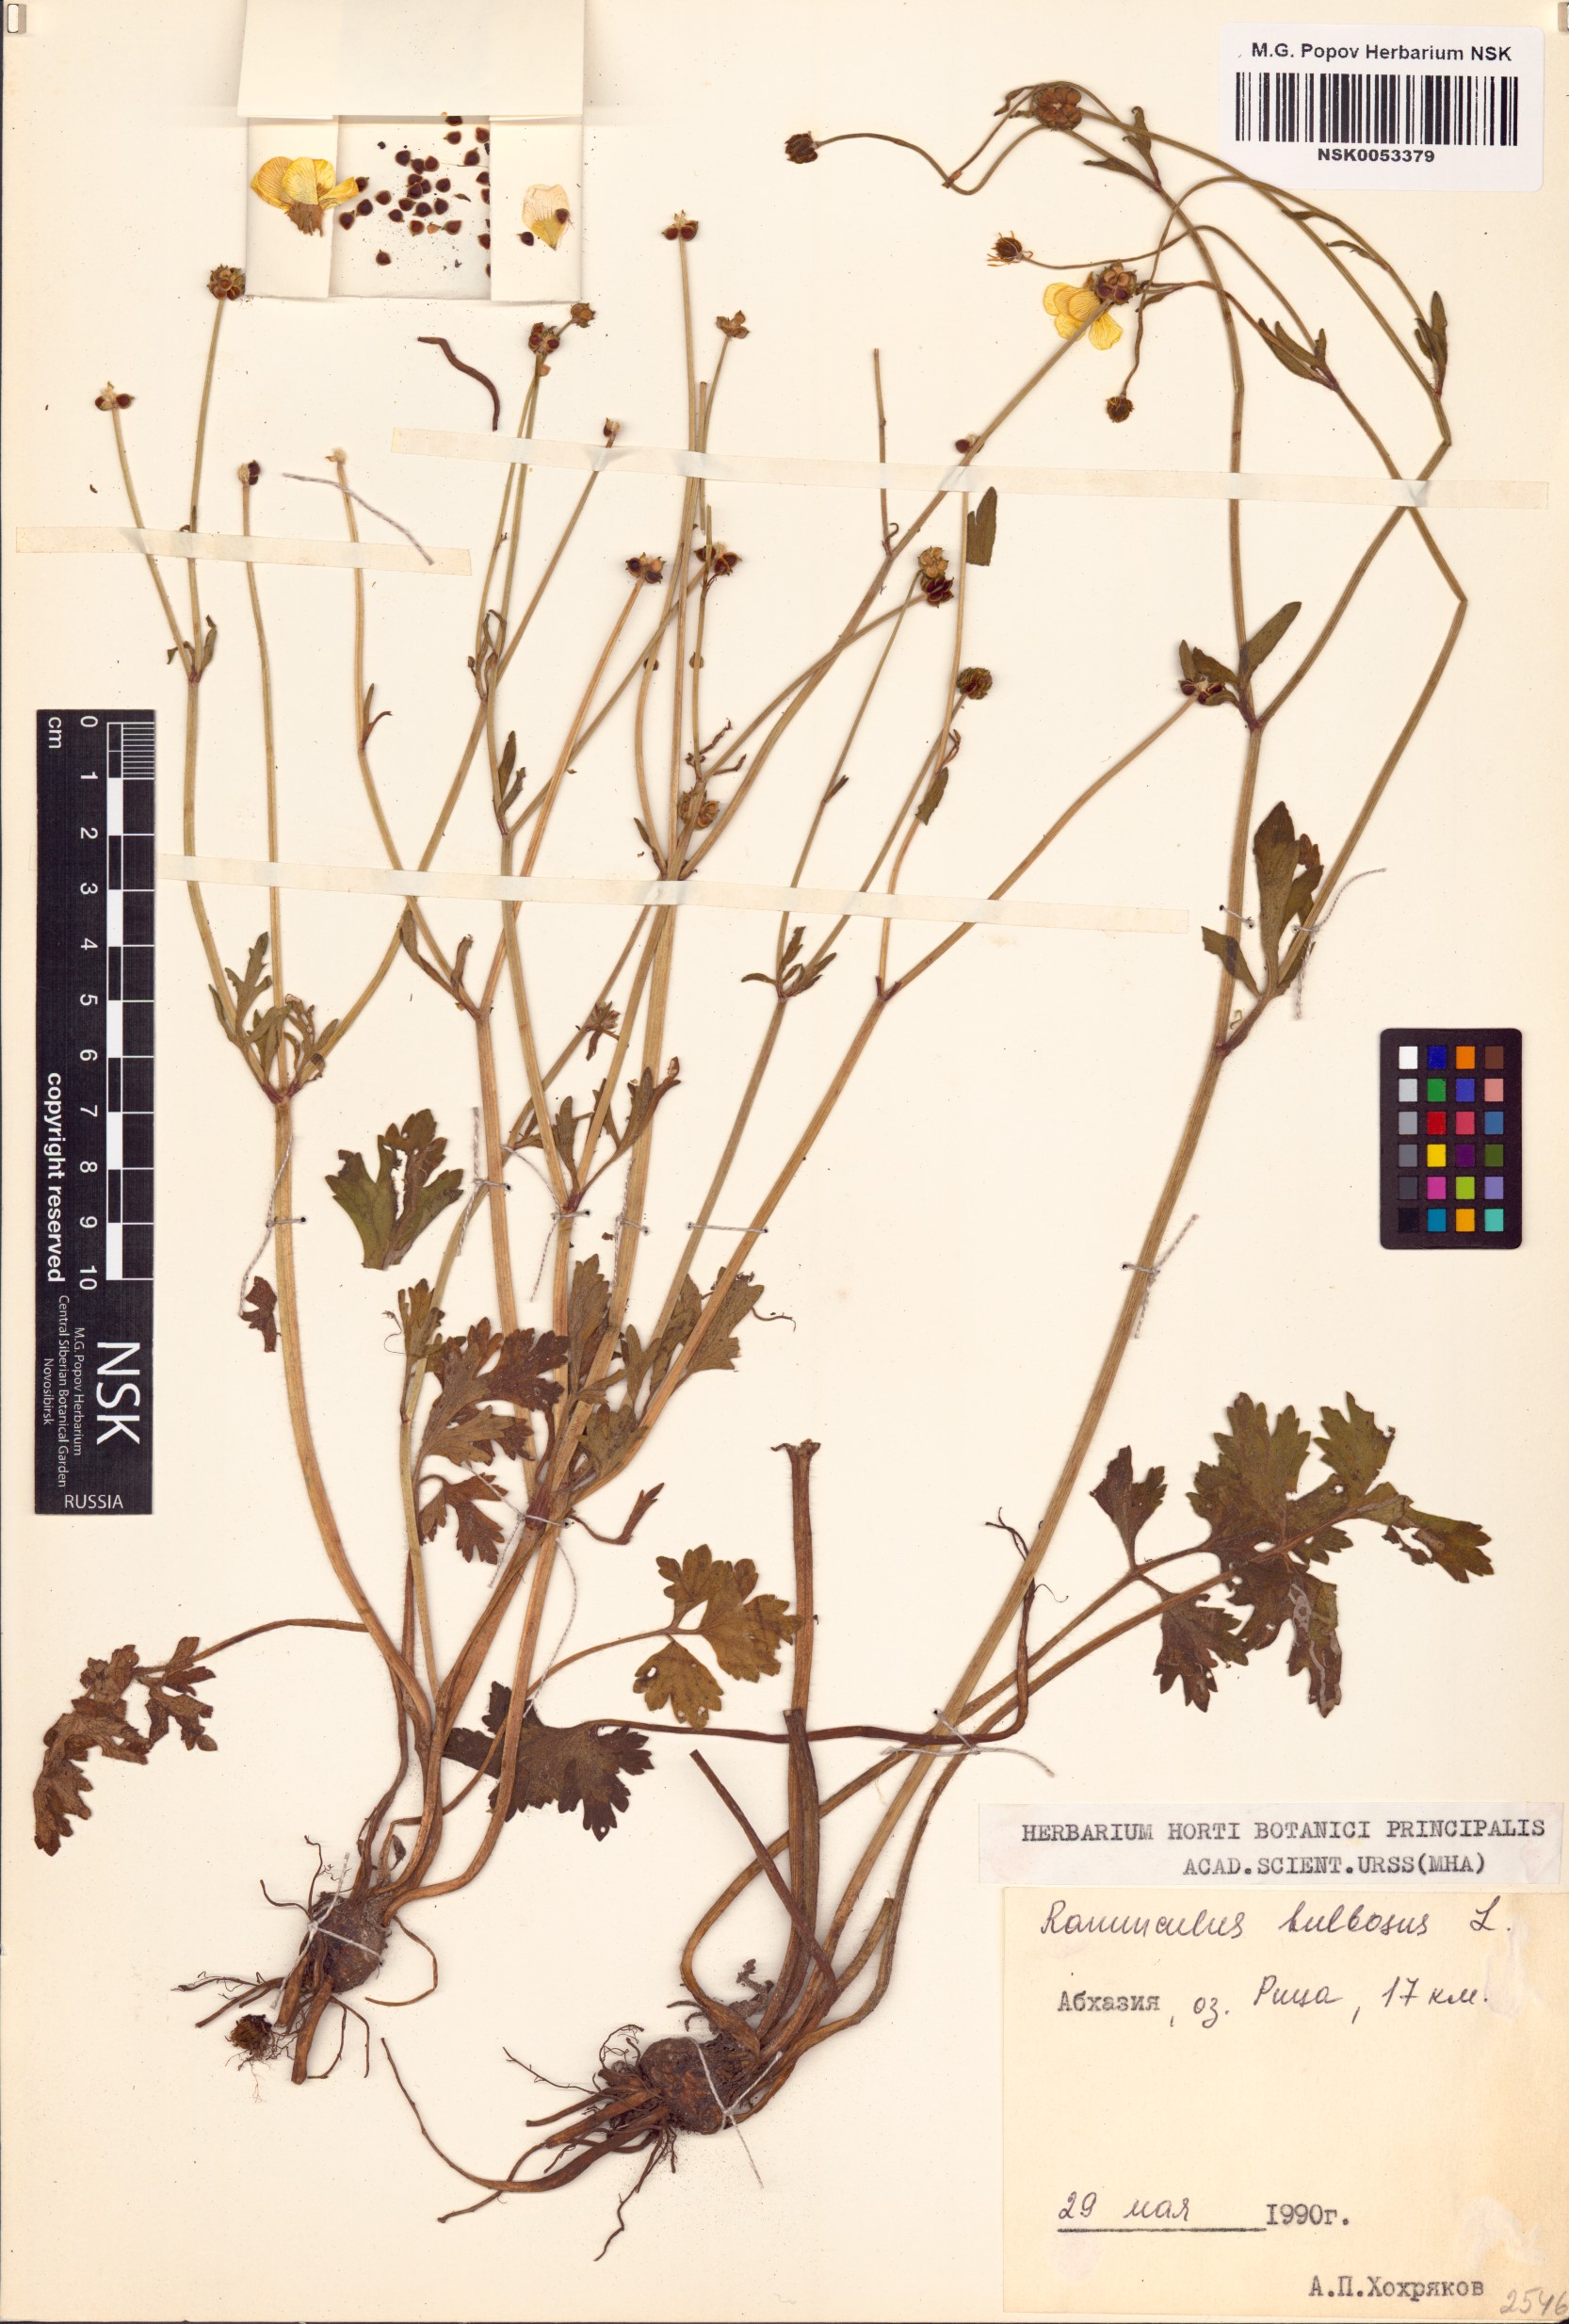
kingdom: Plantae
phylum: Tracheophyta
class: Magnoliopsida
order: Ranunculales
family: Ranunculaceae
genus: Ranunculus
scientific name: Ranunculus bulbosus
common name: Bulbous buttercup
